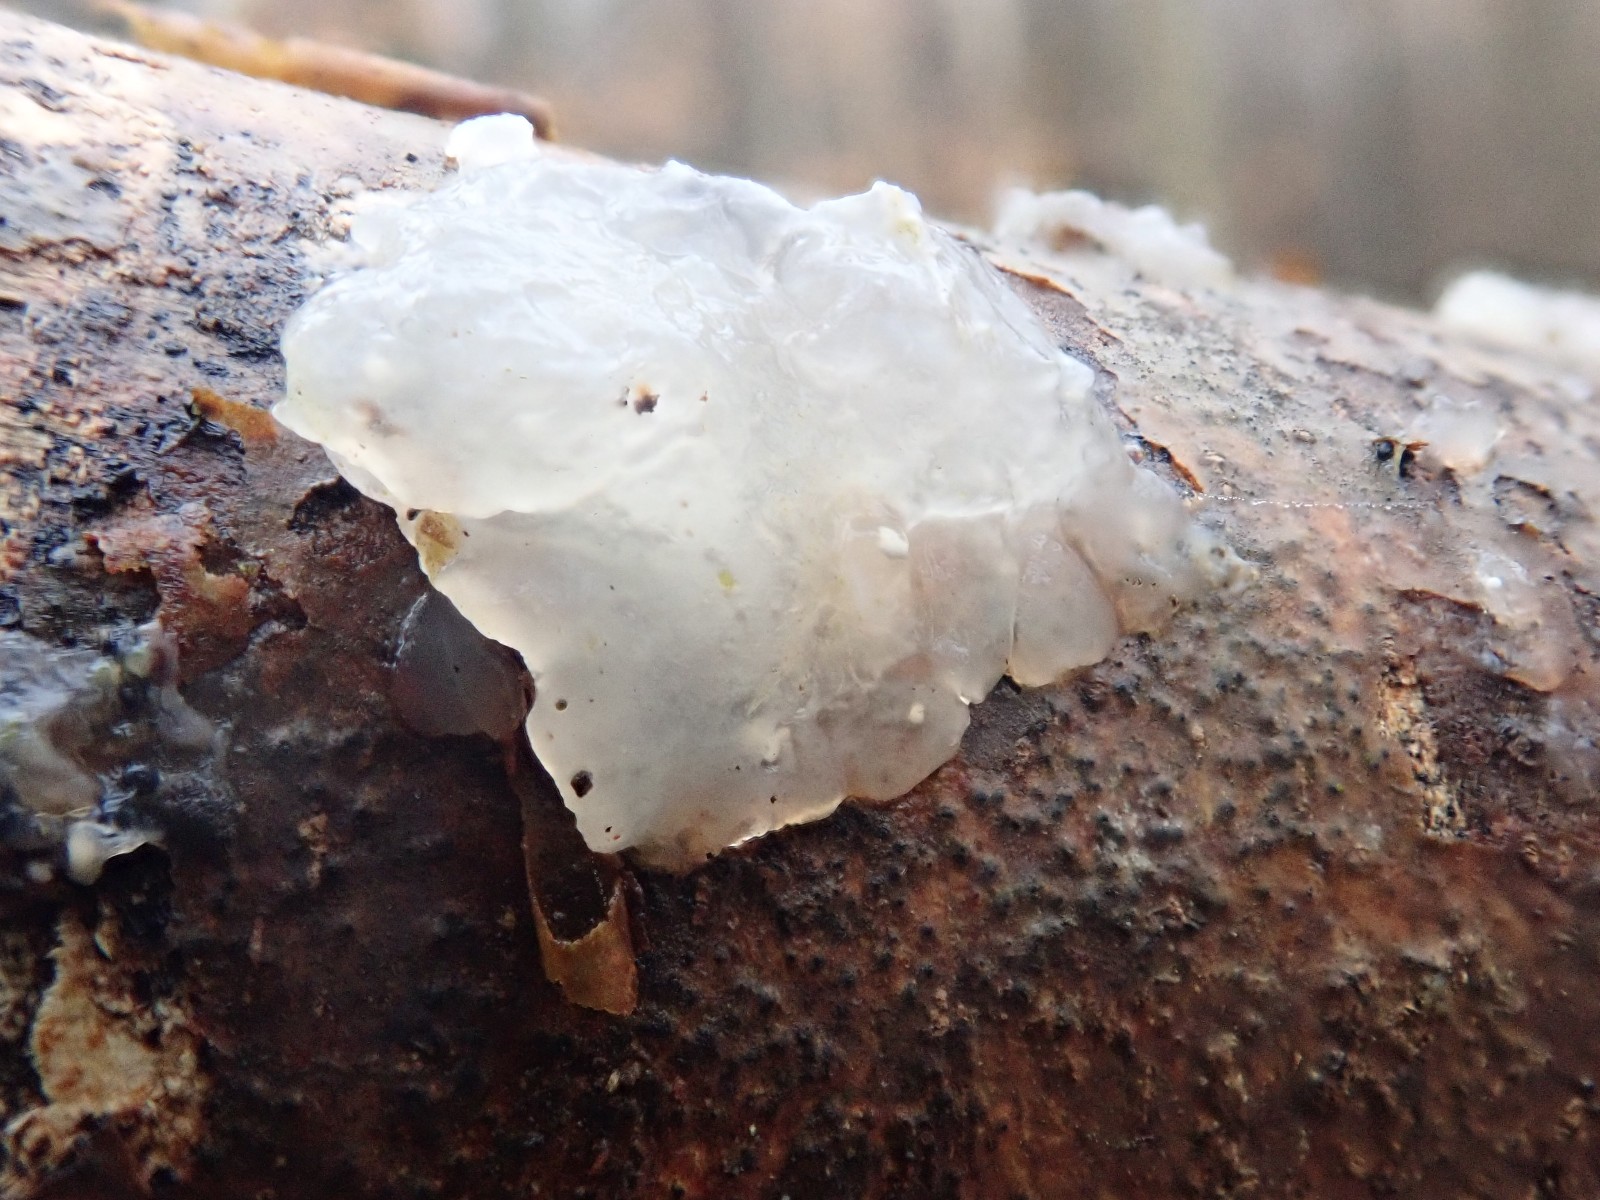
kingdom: Fungi
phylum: Basidiomycota
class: Agaricomycetes
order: Auriculariales
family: Hyaloriaceae
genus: Myxarium
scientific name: Myxarium nucleatum
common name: klar bævretop
